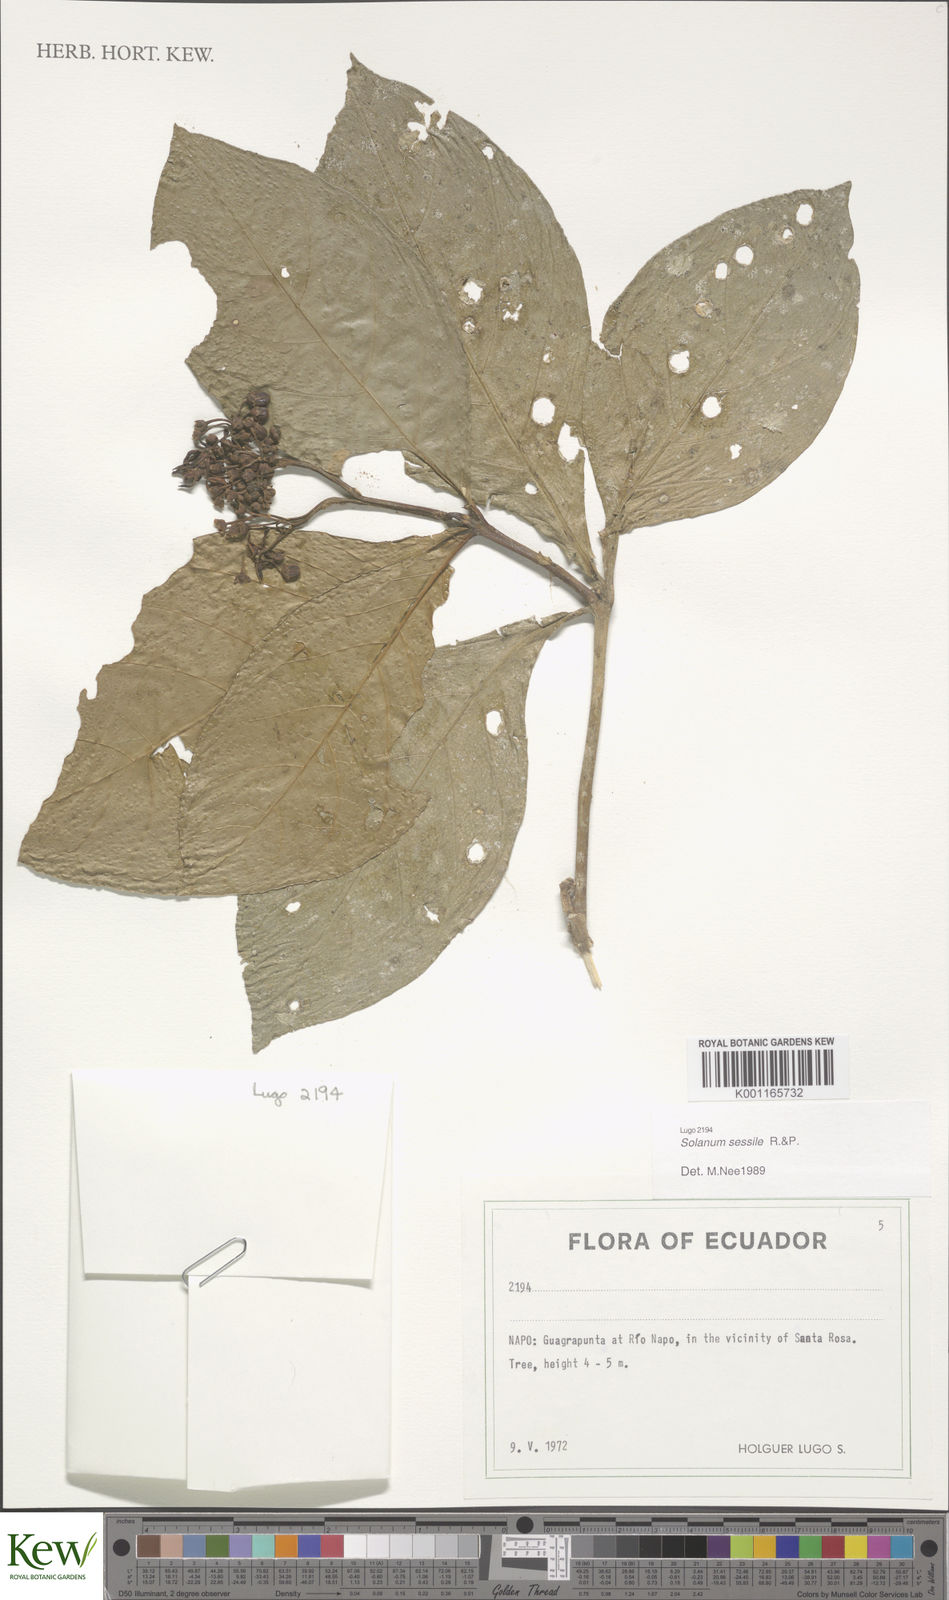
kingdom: Plantae
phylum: Tracheophyta
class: Magnoliopsida
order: Solanales
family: Solanaceae
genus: Solanum
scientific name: Solanum sessile
